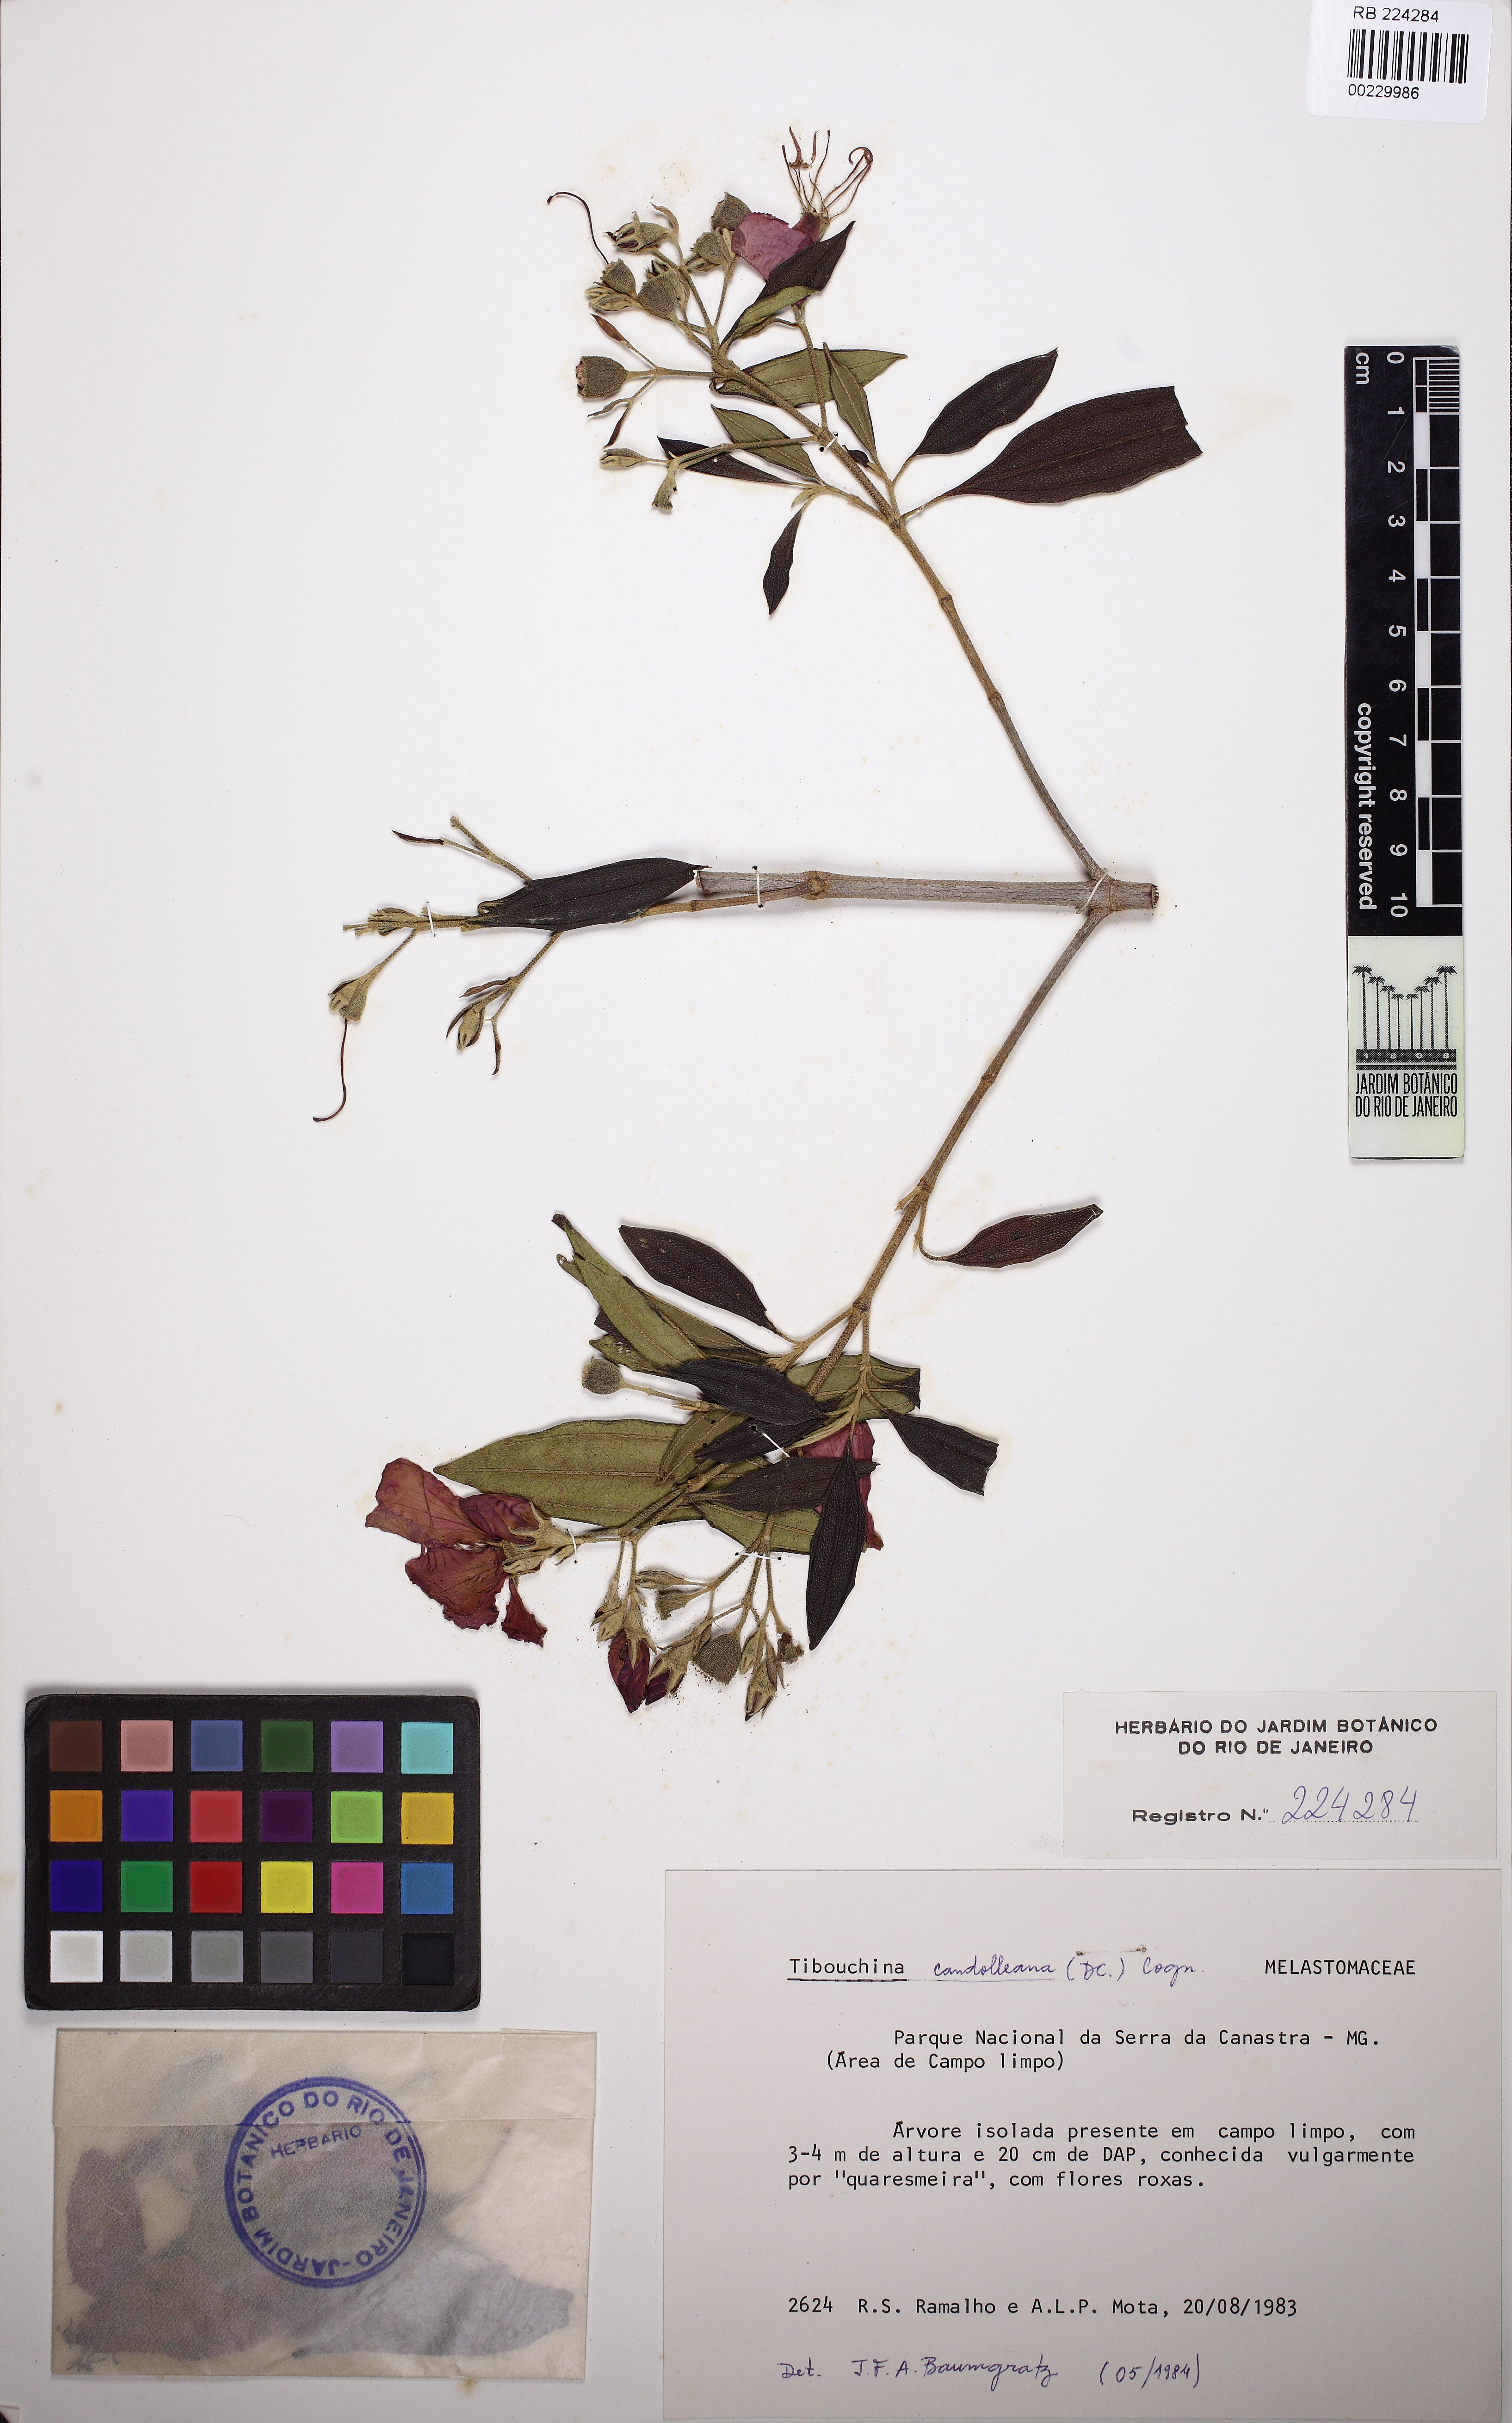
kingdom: Plantae
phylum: Tracheophyta
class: Magnoliopsida
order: Myrtales
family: Melastomataceae
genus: Pleroma
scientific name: Pleroma candolleanum
